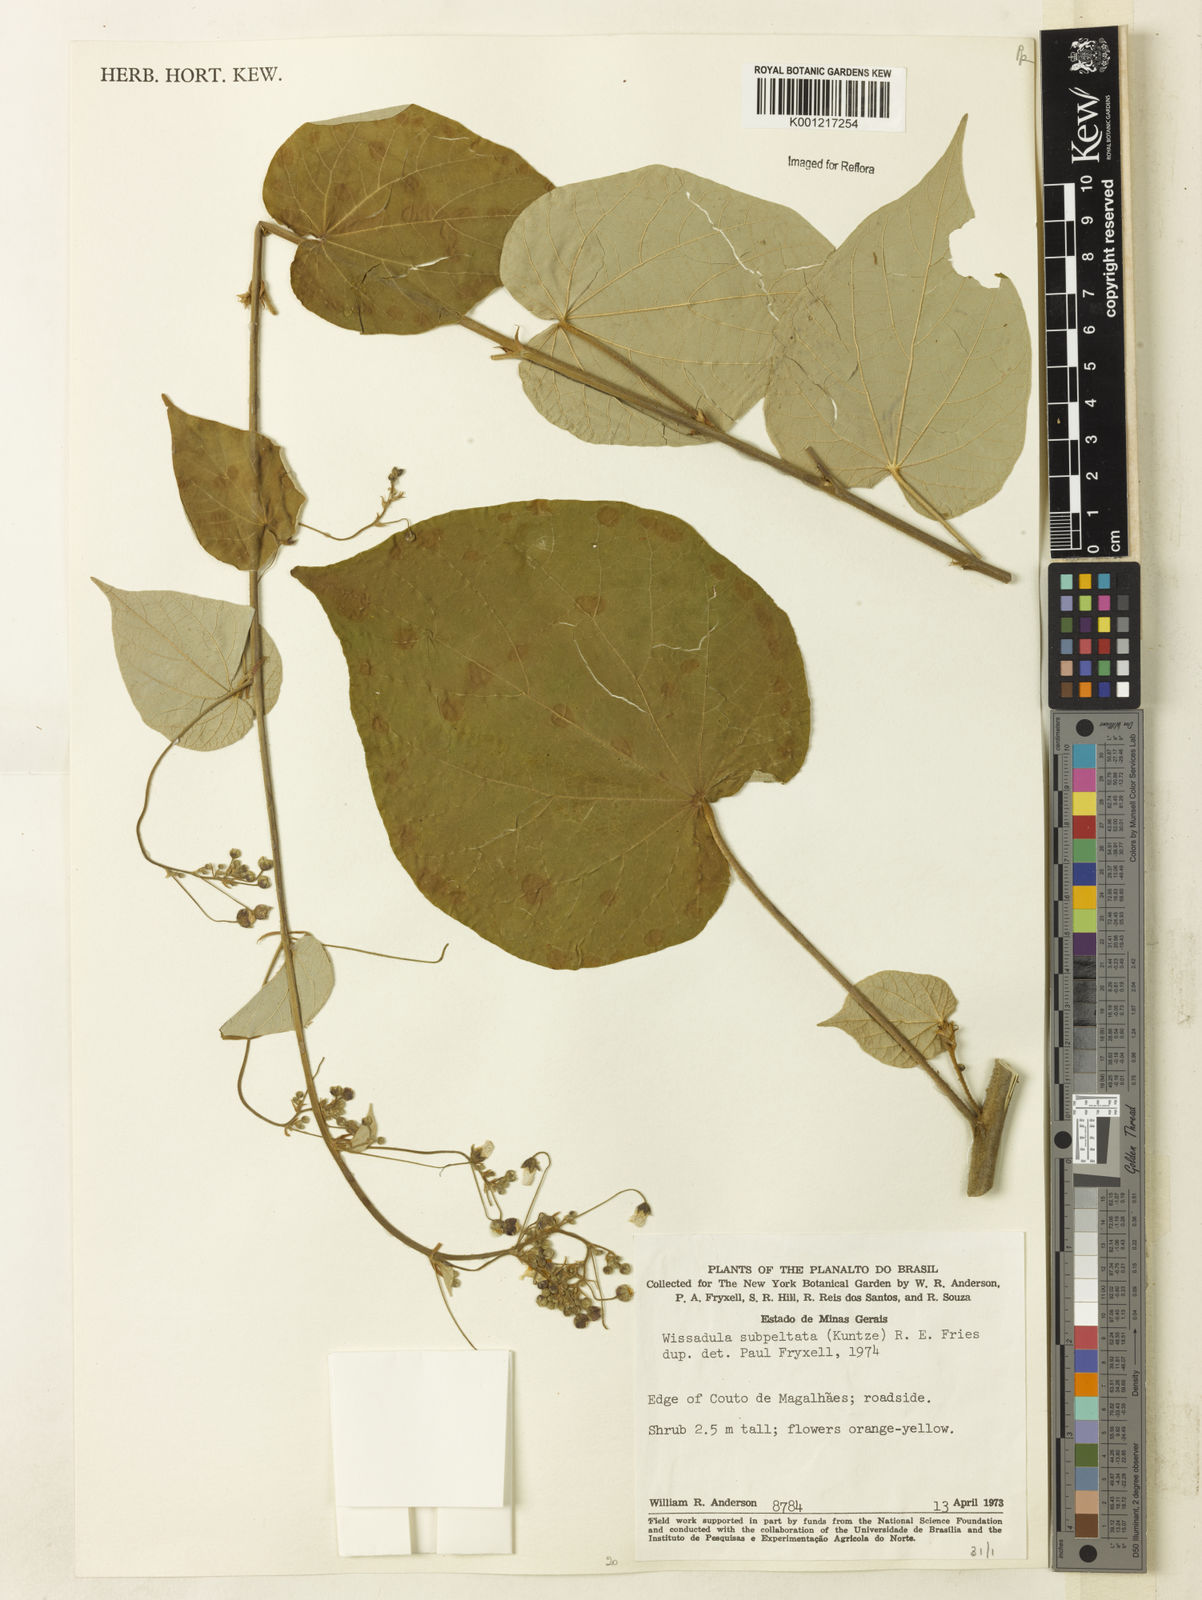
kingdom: Plantae
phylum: Tracheophyta
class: Magnoliopsida
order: Malvales
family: Malvaceae
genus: Wissadula
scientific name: Wissadula subpeltata
